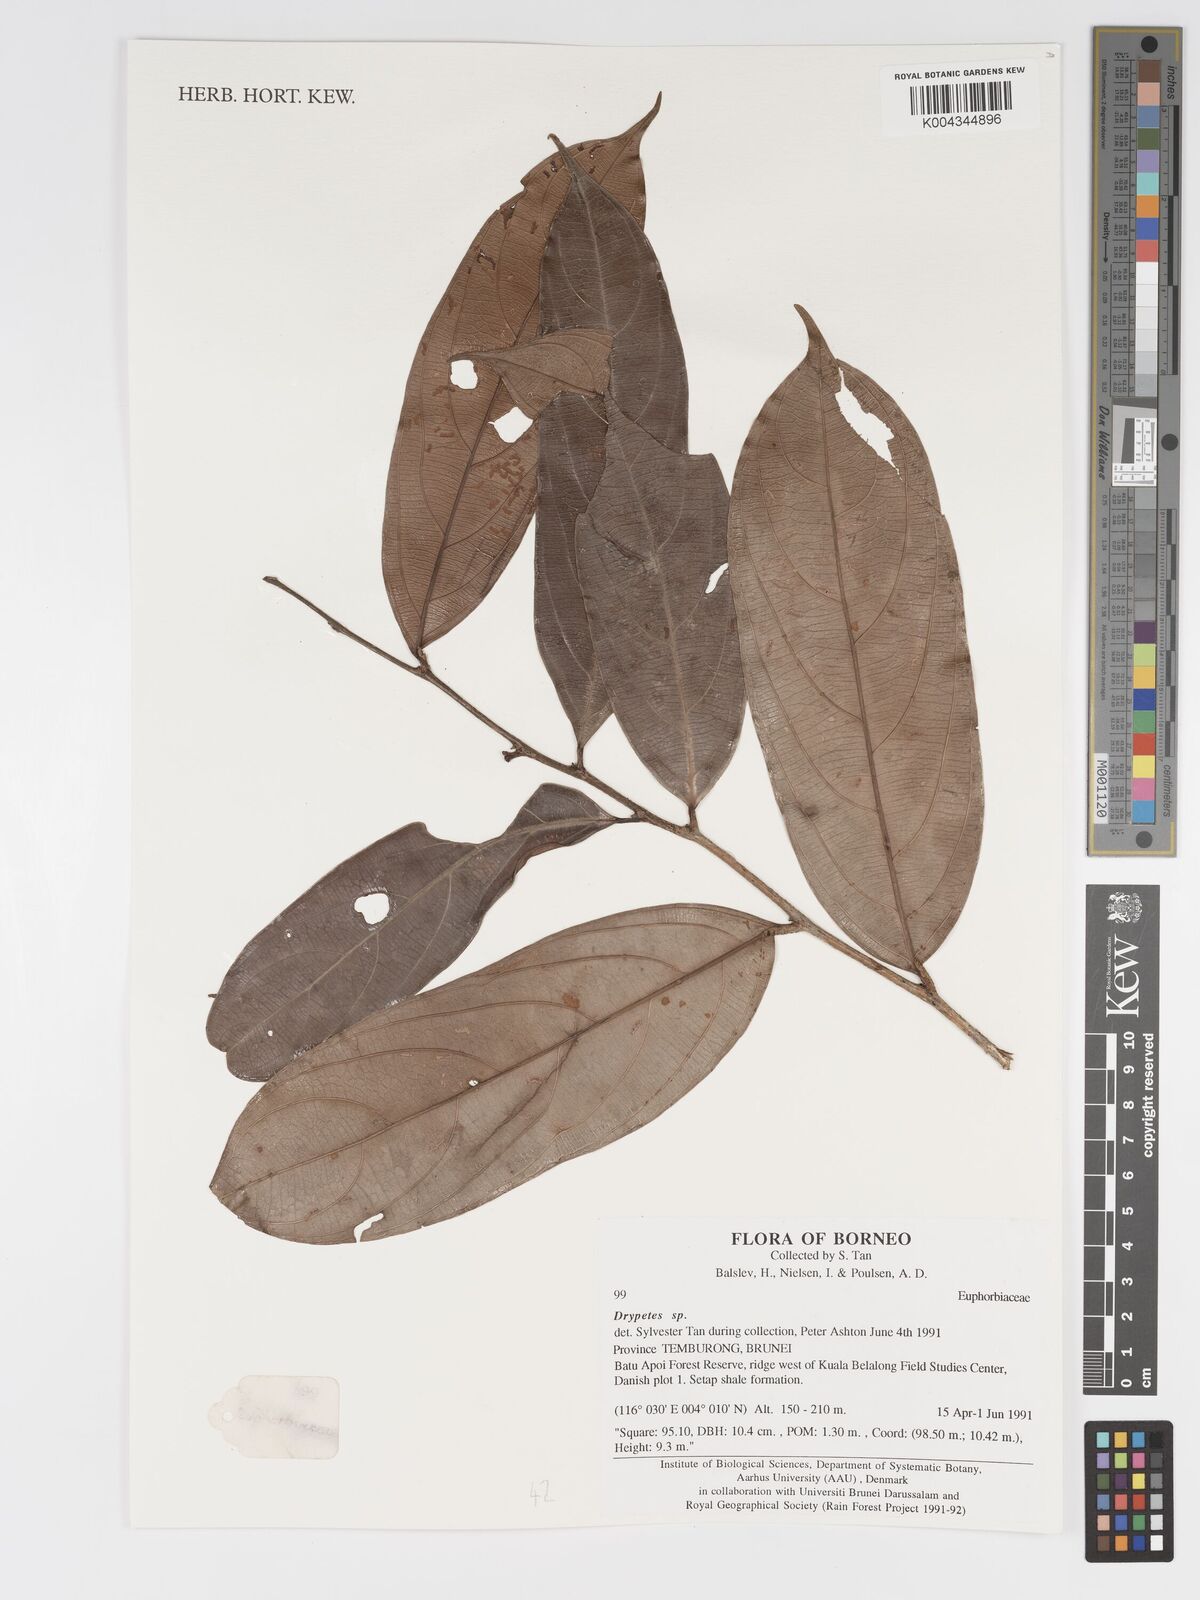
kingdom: Plantae
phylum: Tracheophyta
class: Magnoliopsida
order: Malpighiales
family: Putranjivaceae
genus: Drypetes
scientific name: Drypetes
